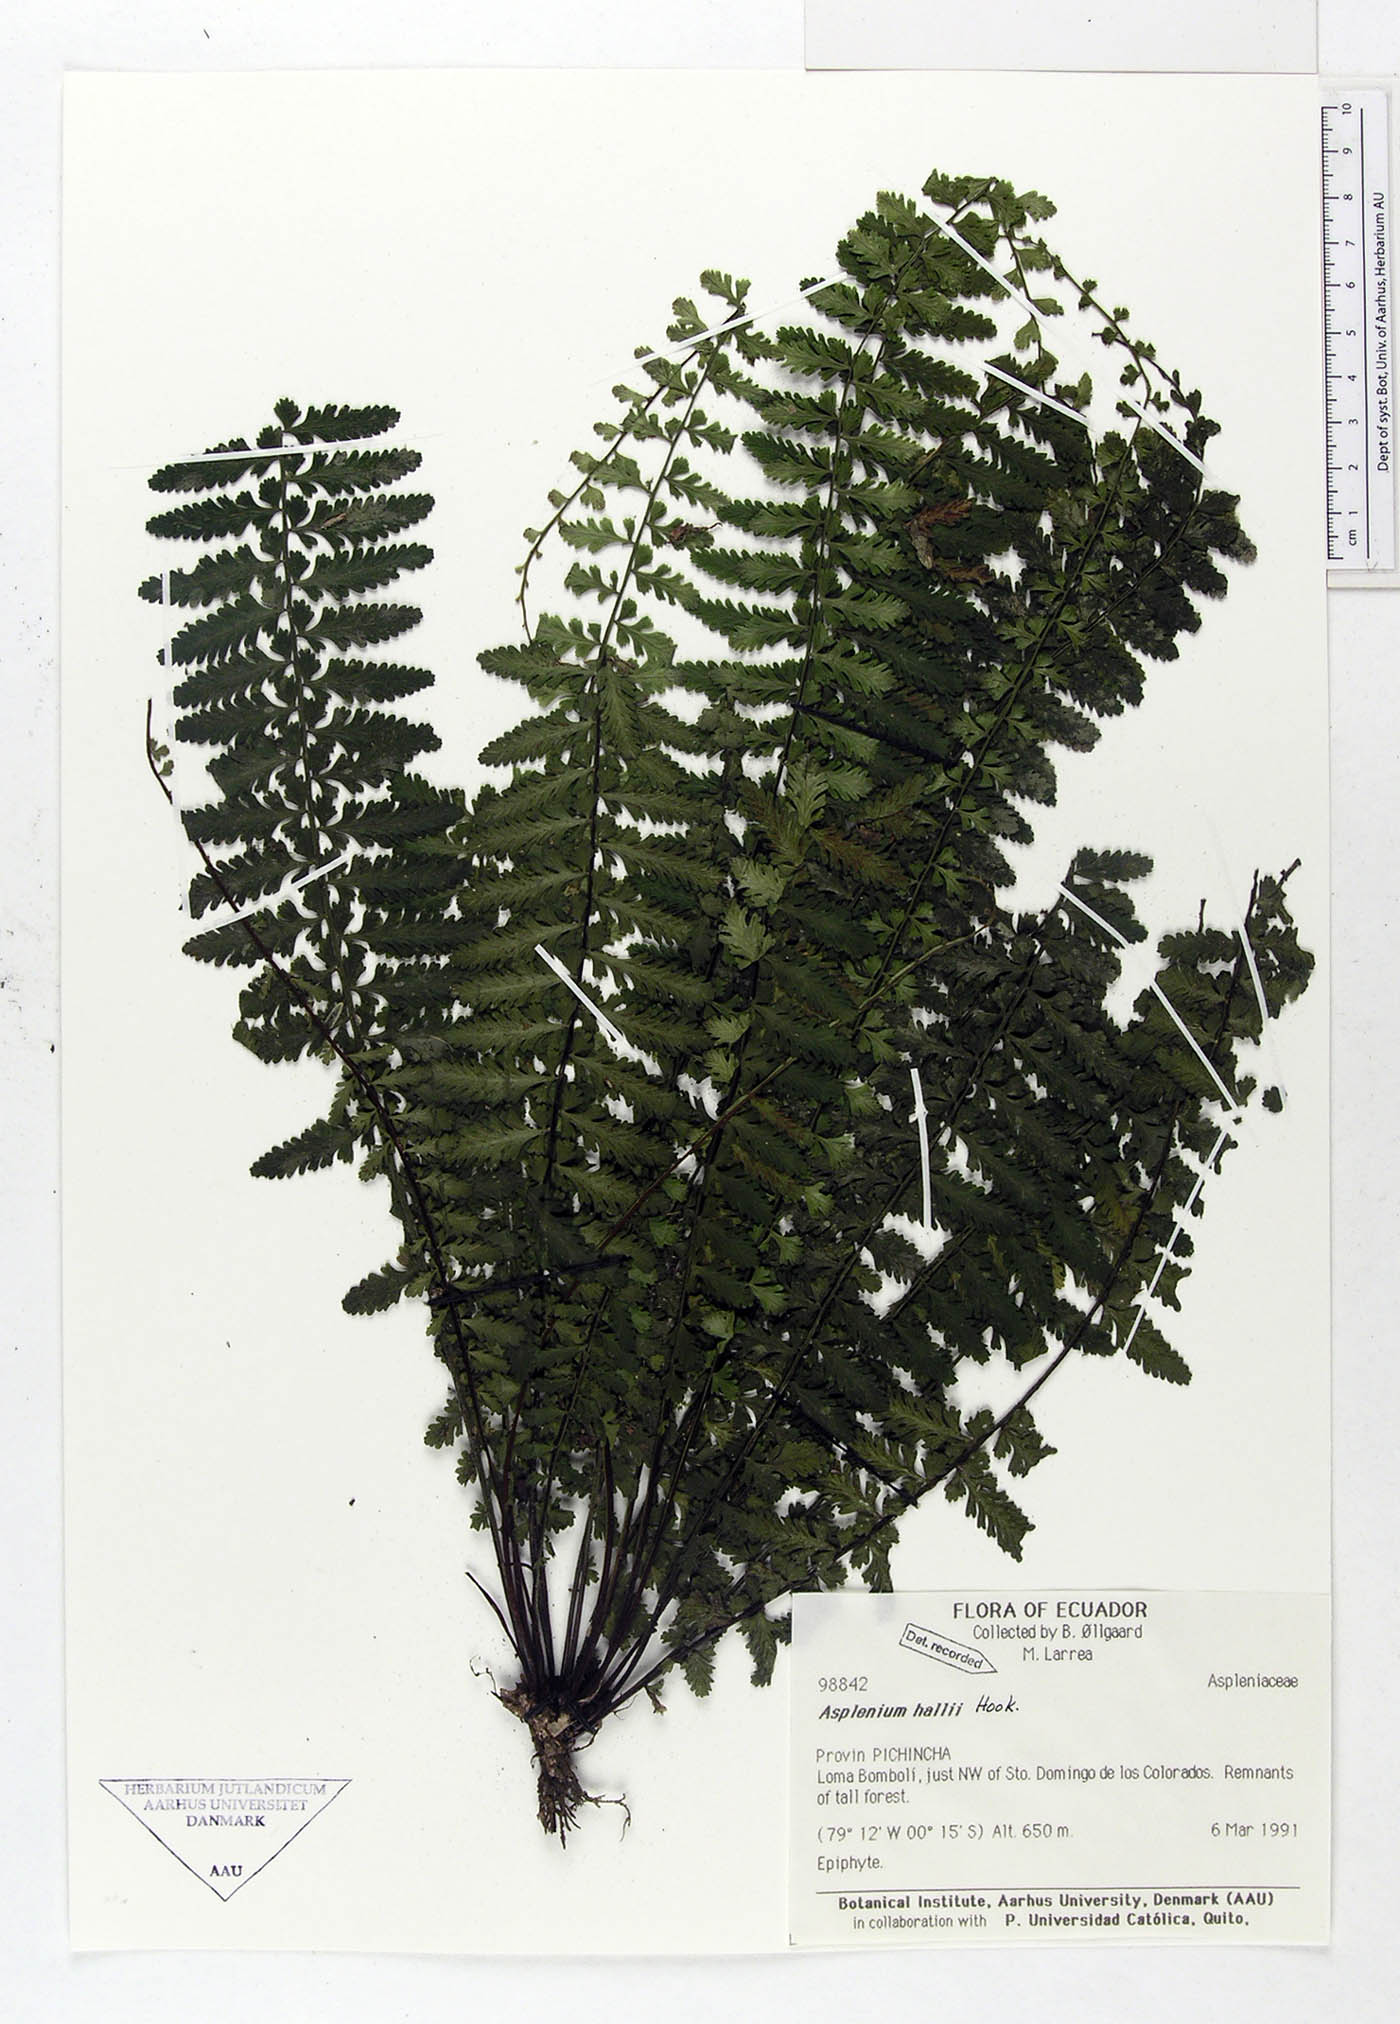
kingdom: Plantae
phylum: Tracheophyta
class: Polypodiopsida
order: Polypodiales
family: Aspleniaceae
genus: Asplenium
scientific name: Asplenium hallii
